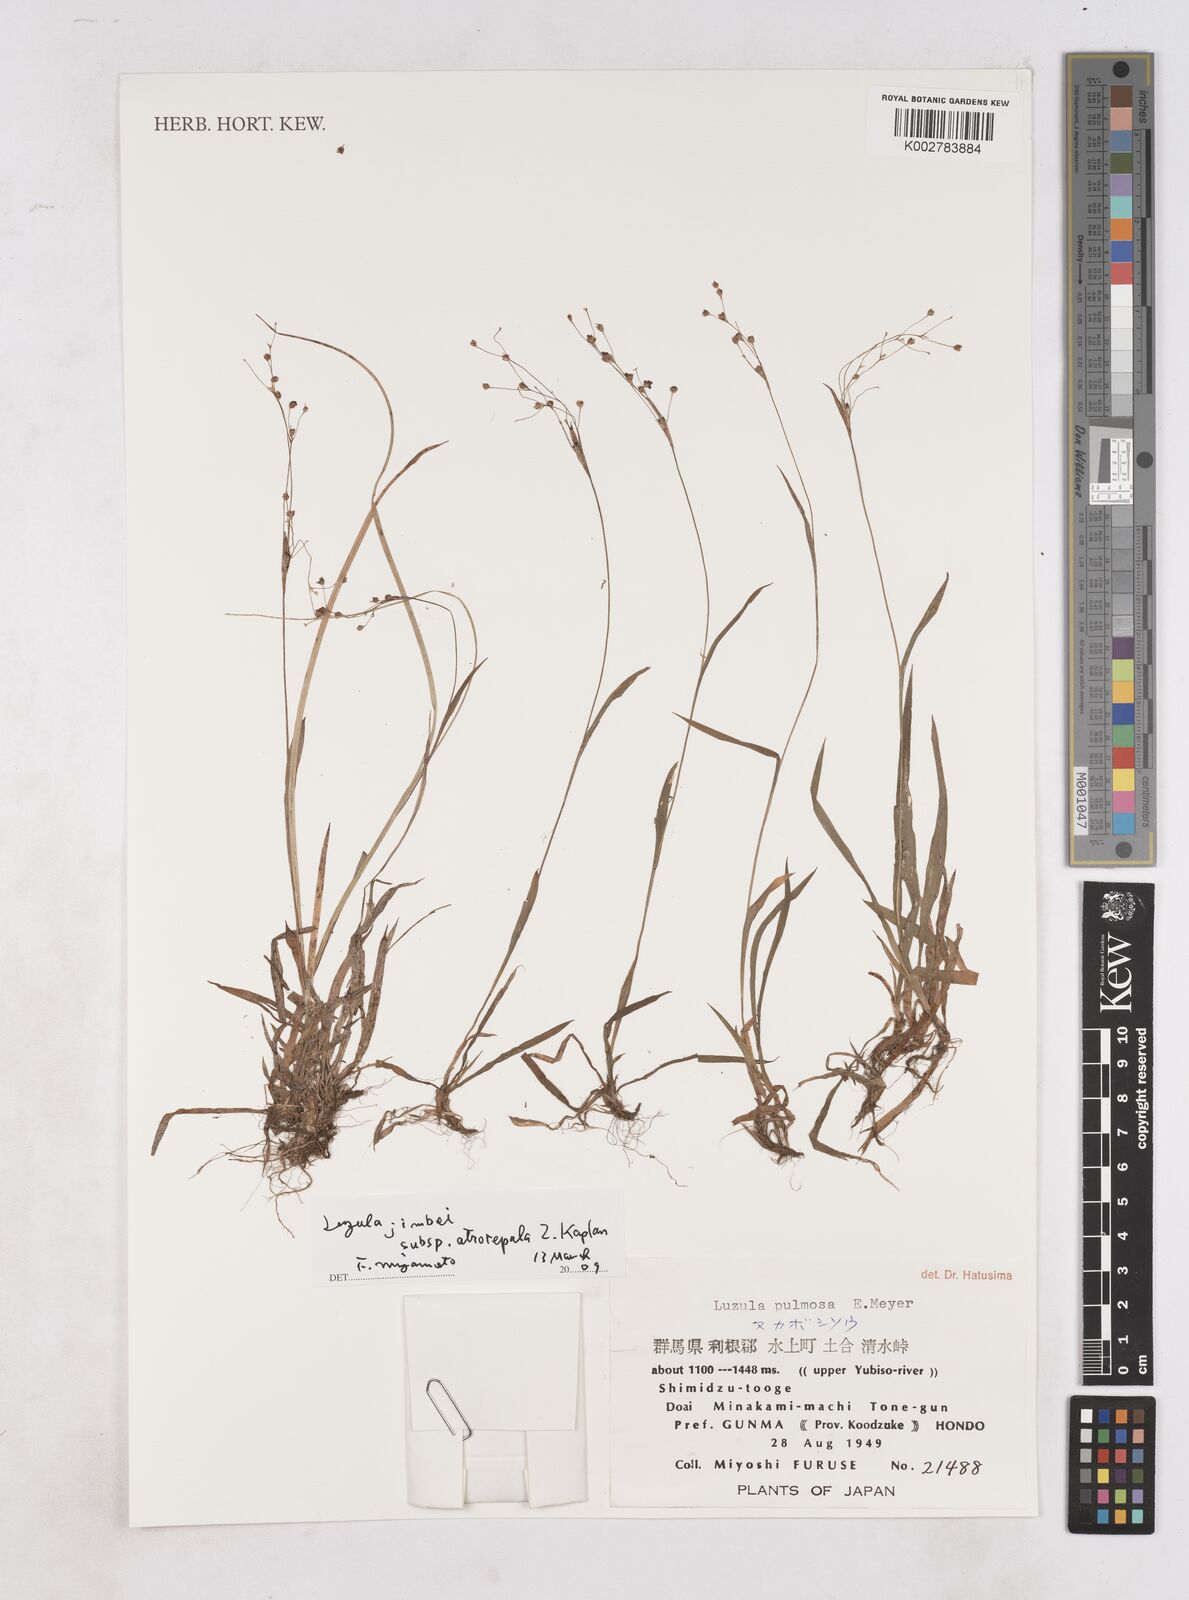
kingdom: Plantae
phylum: Tracheophyta
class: Liliopsida
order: Poales
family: Juncaceae
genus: Luzula
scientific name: Luzula plumosa
